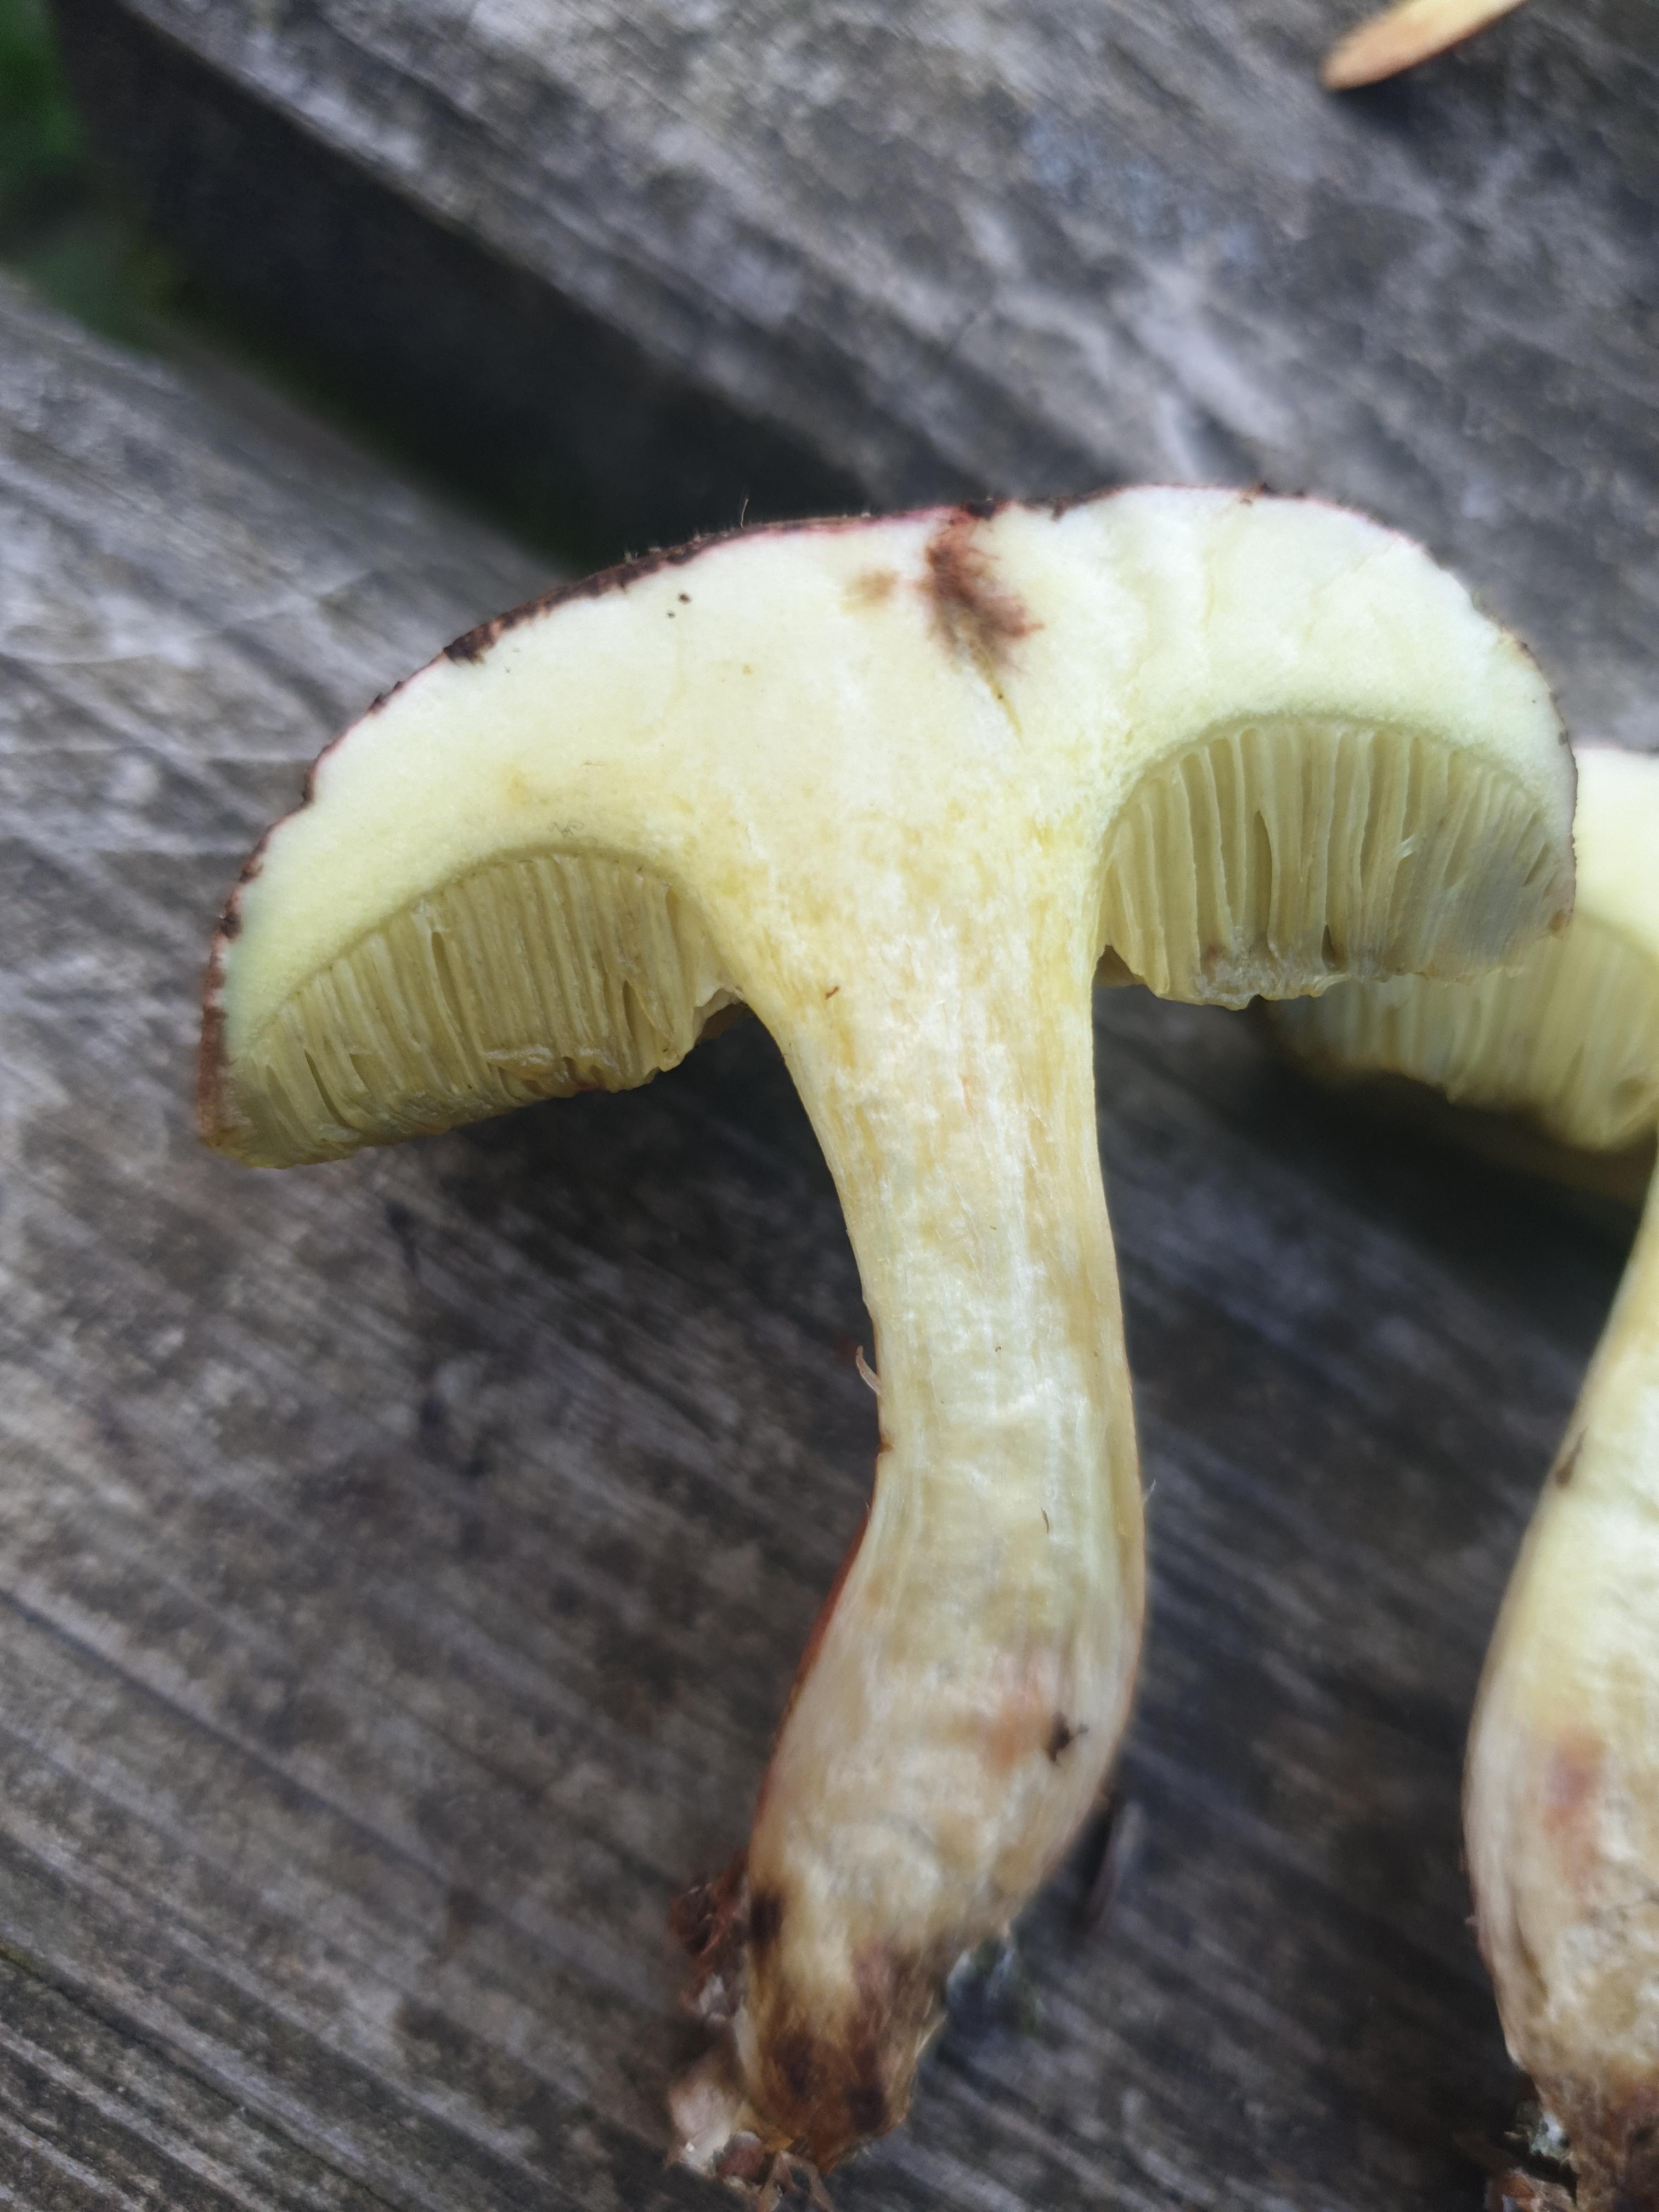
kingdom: Fungi
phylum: Basidiomycota
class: Agaricomycetes
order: Boletales
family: Boletaceae
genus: Xerocomellus
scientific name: Xerocomellus chrysenteron
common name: rødsprukken rørhat
